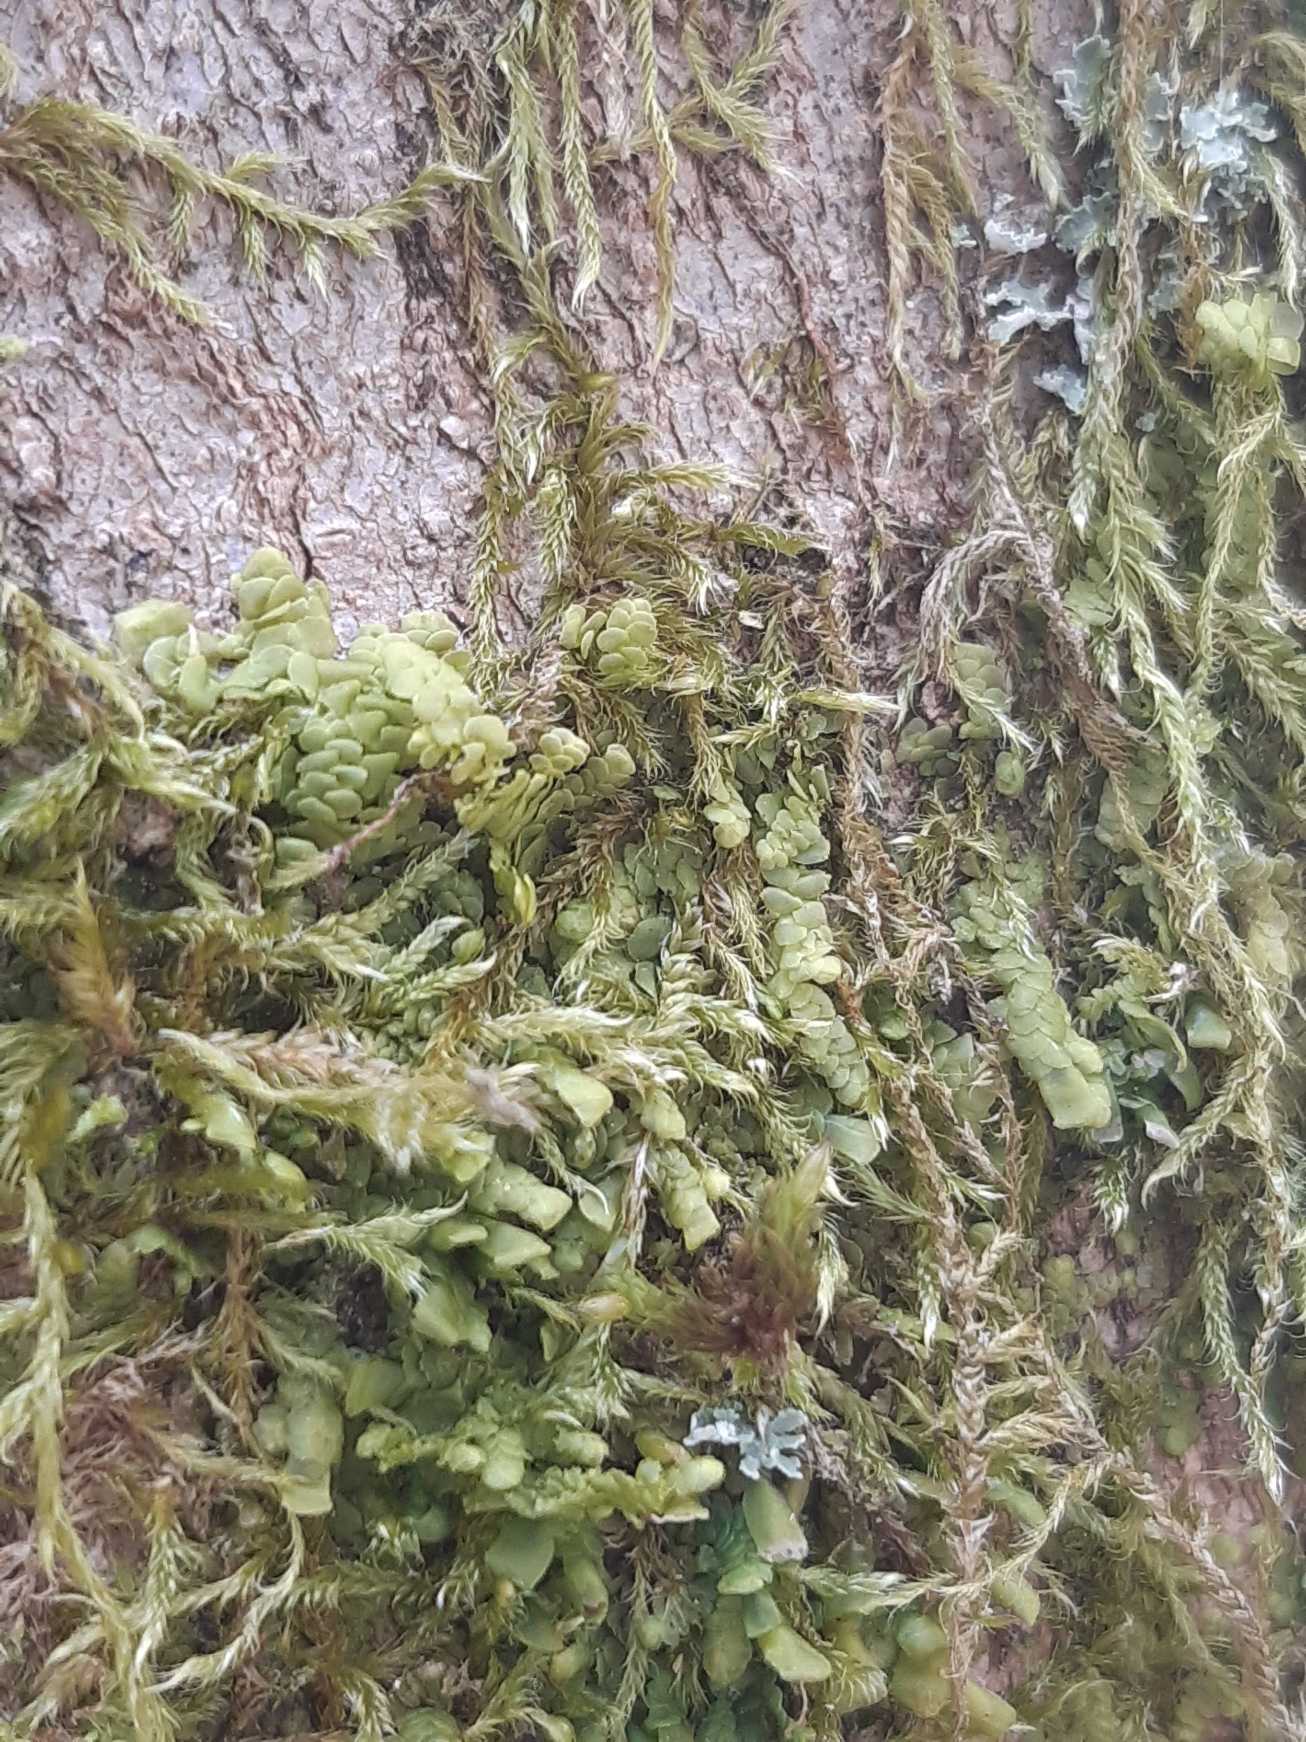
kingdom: Plantae
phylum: Marchantiophyta
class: Jungermanniopsida
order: Porellales
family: Radulaceae
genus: Radula
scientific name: Radula complanata
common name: Almindelig spartelmos
